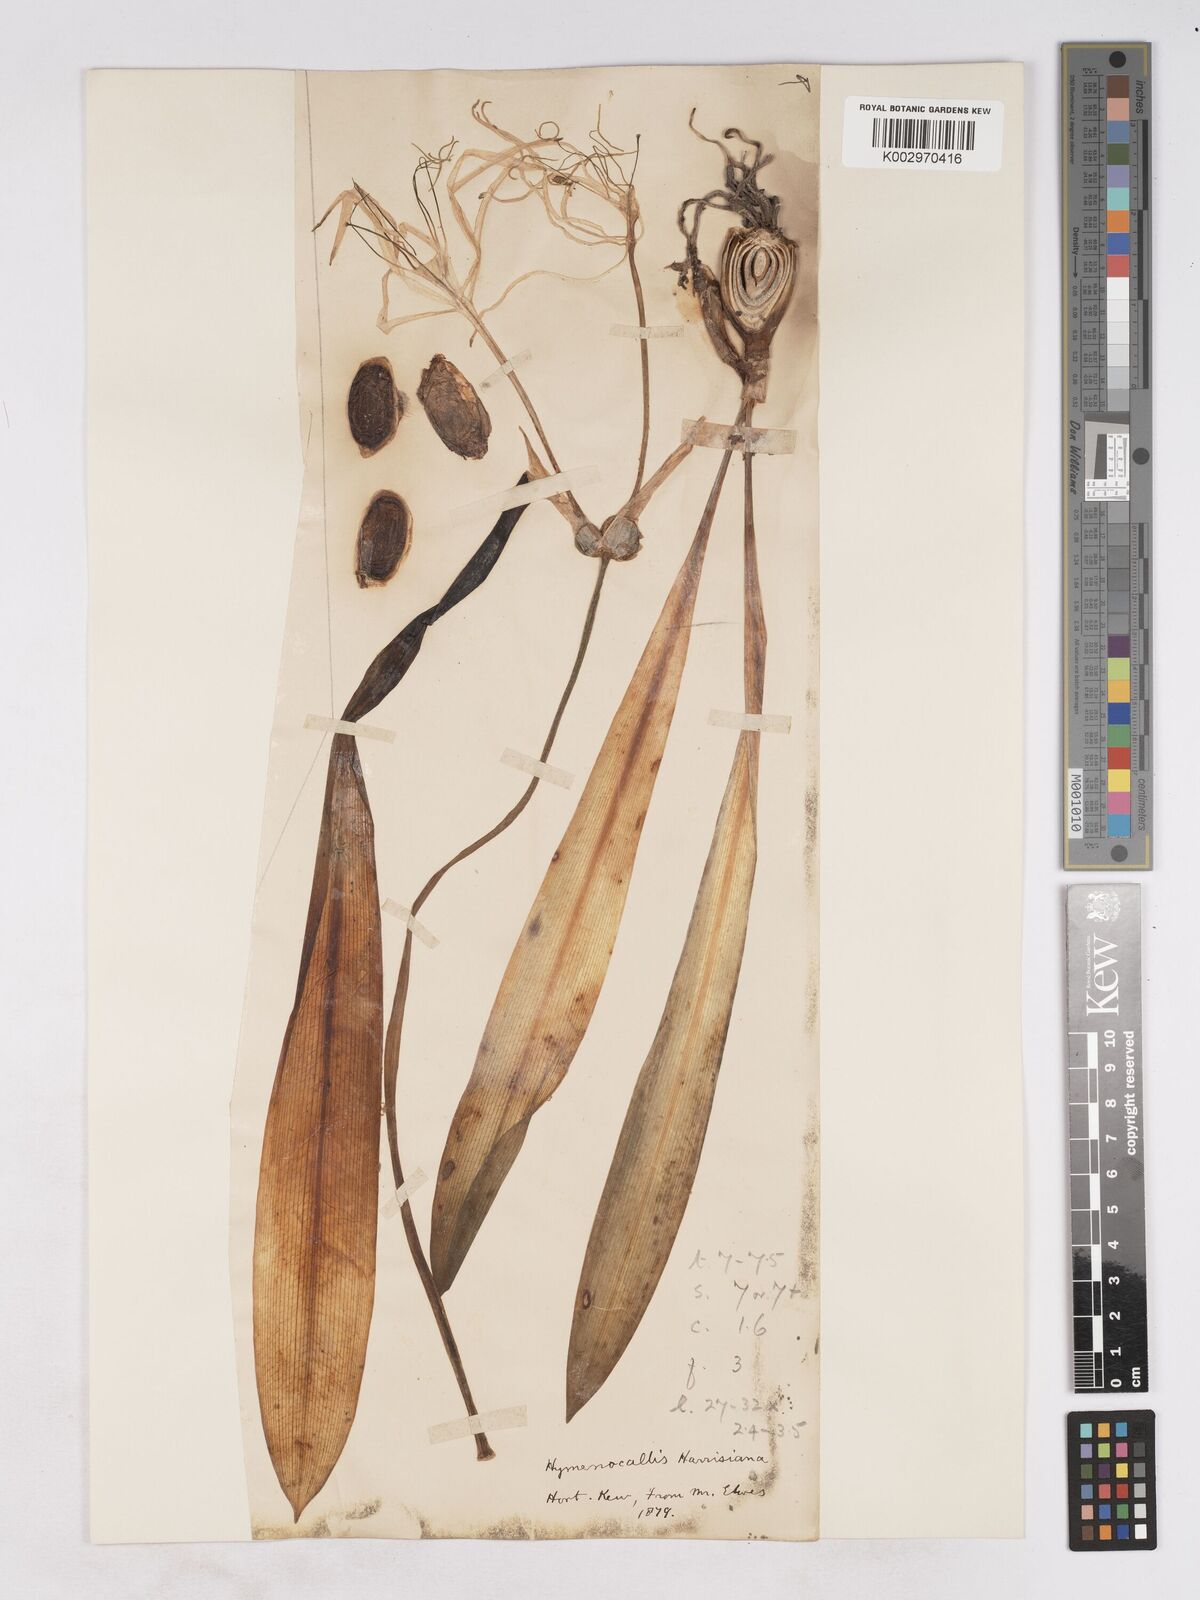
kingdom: Plantae
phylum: Tracheophyta
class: Liliopsida
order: Asparagales
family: Amaryllidaceae
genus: Hymenocallis
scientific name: Hymenocallis harrisiana
